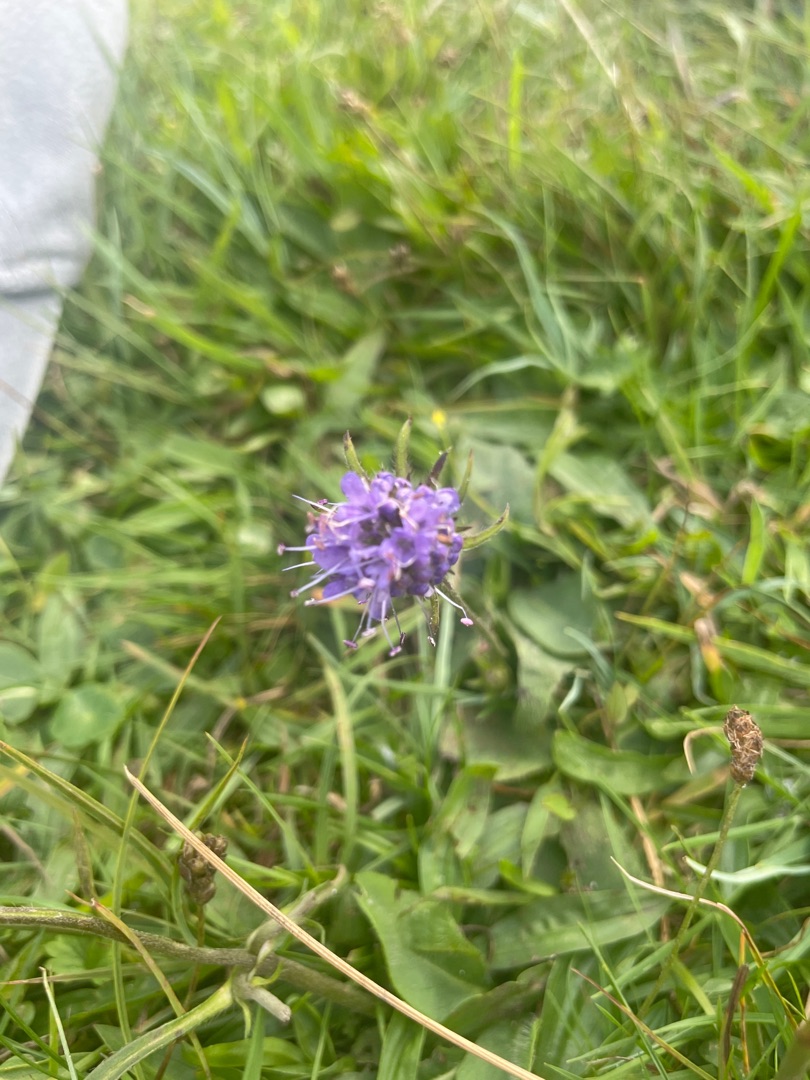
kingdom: Plantae
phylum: Tracheophyta
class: Magnoliopsida
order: Dipsacales
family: Caprifoliaceae
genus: Succisa
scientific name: Succisa pratensis
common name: Djævelsbid
